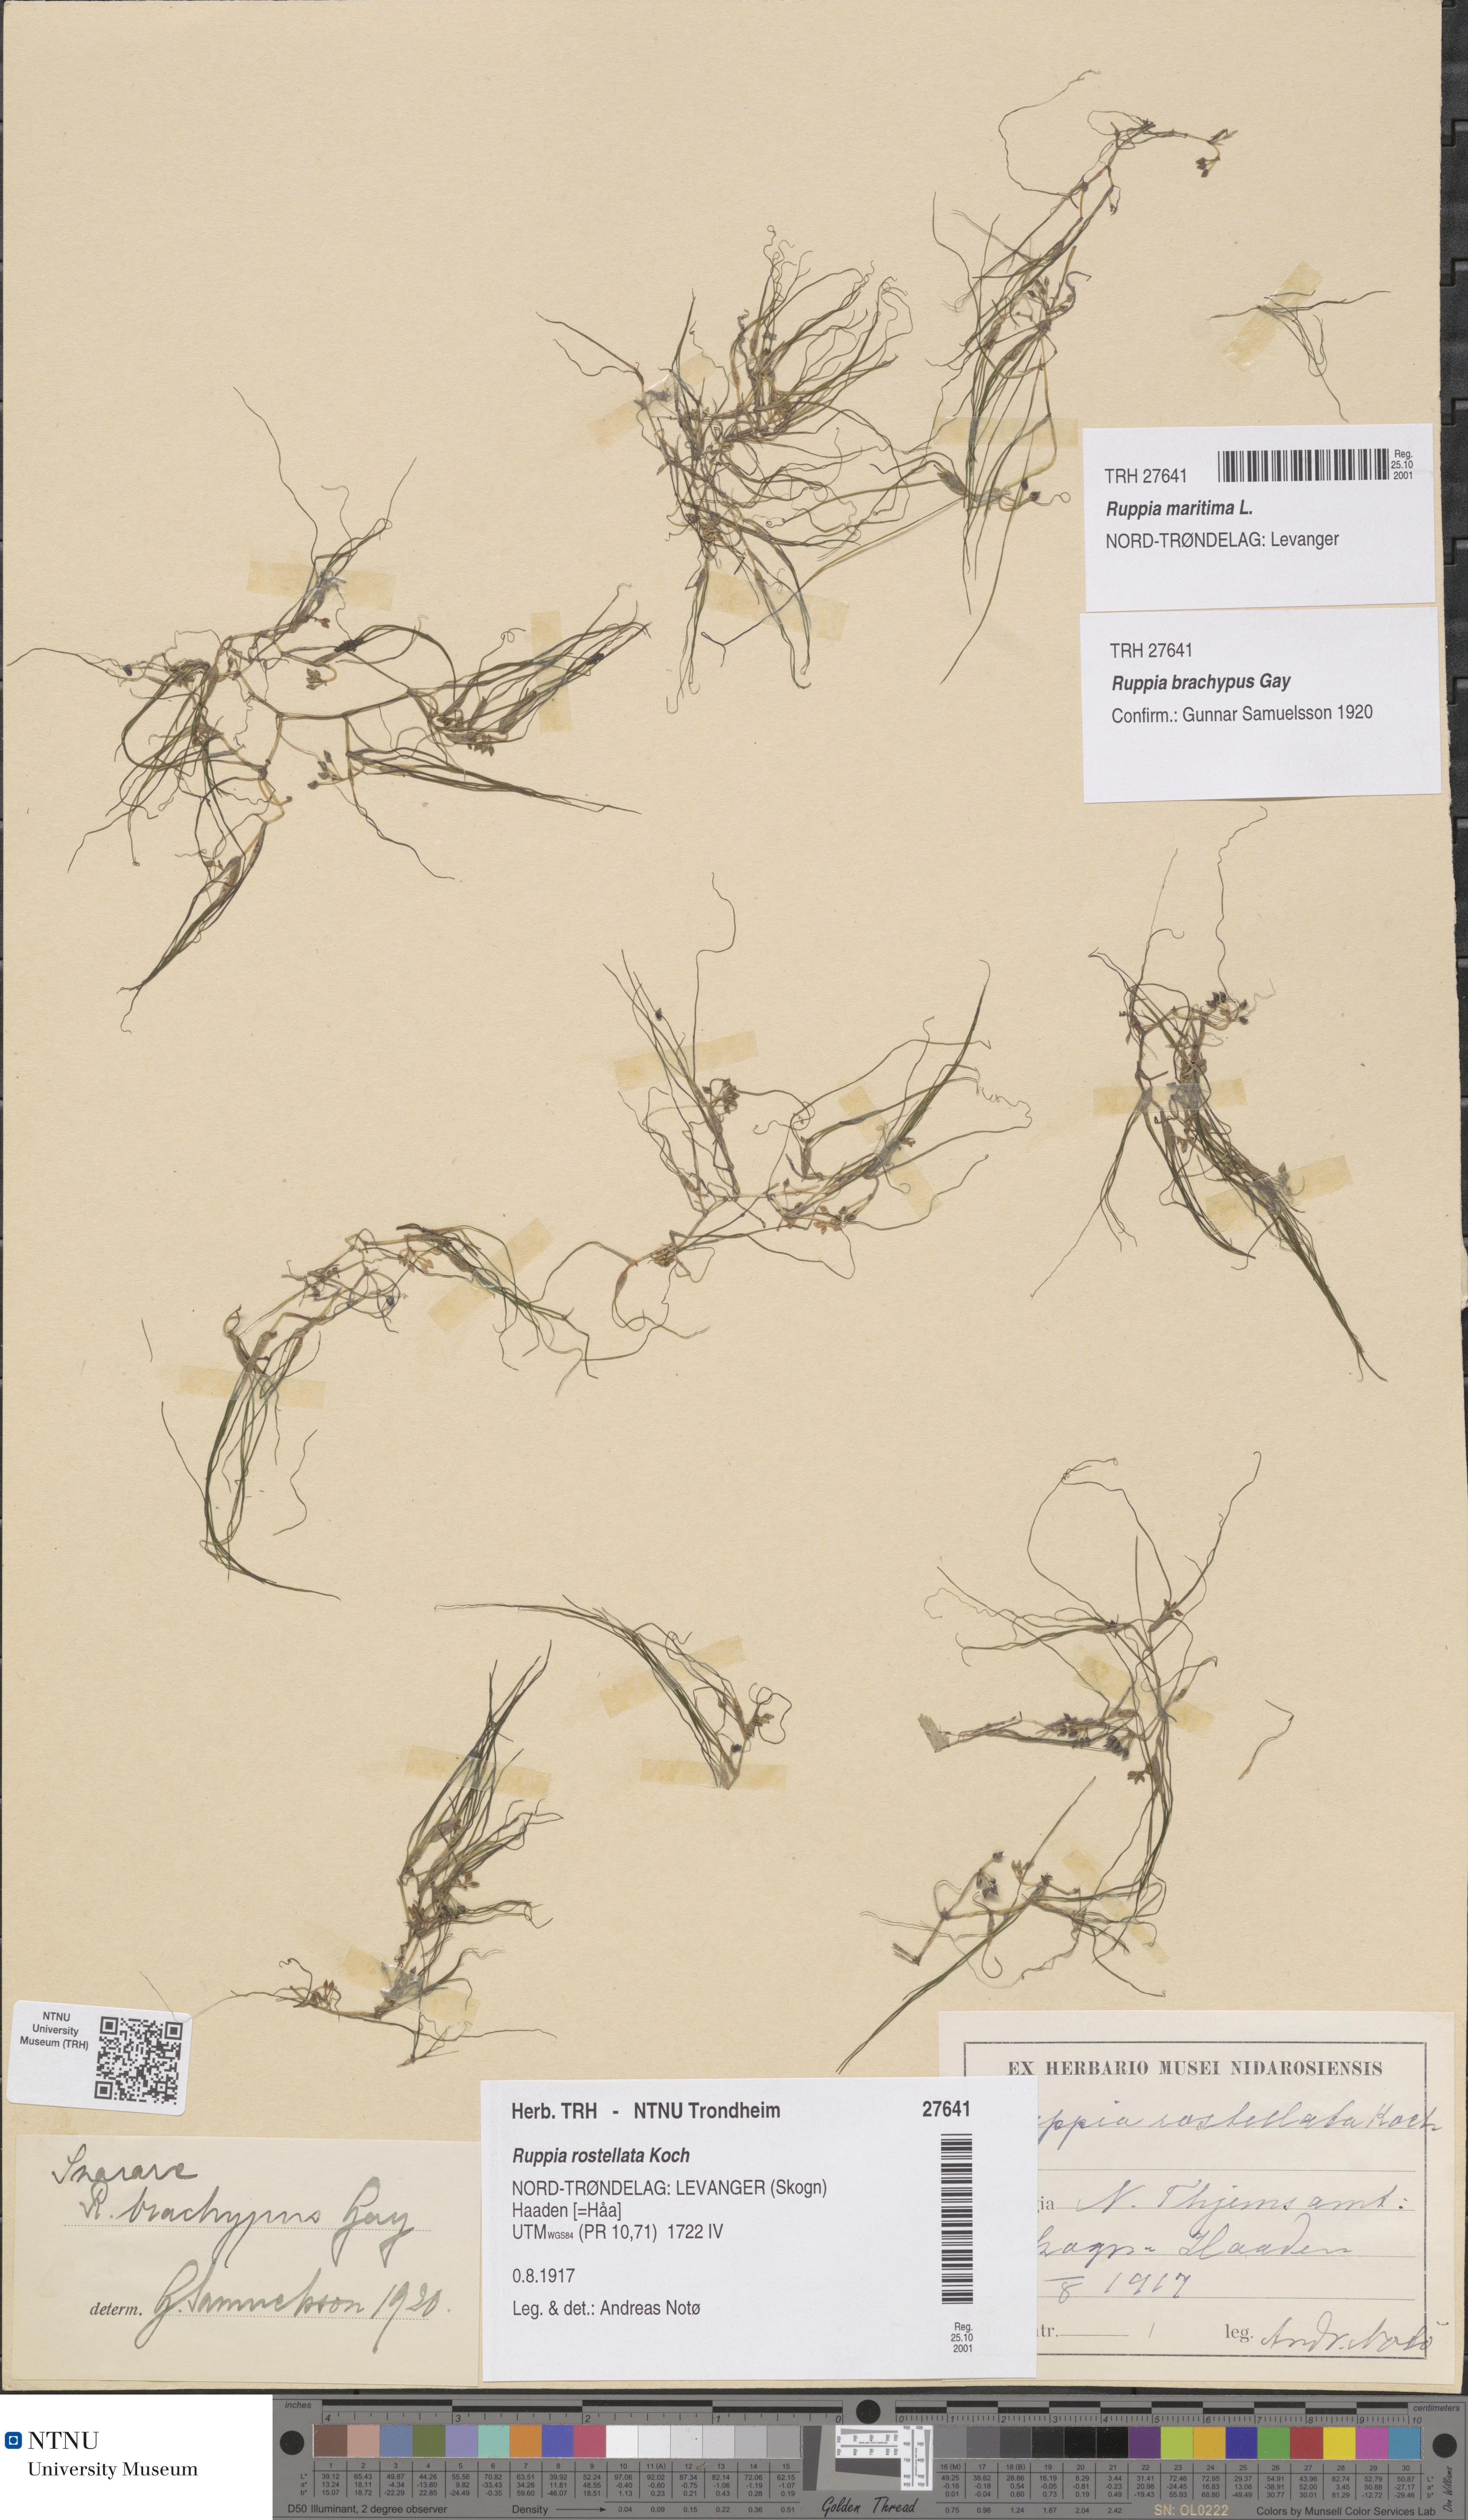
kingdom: Plantae
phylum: Tracheophyta
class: Liliopsida
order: Alismatales
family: Ruppiaceae
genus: Ruppia
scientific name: Ruppia maritima
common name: Beaked tasselweed
